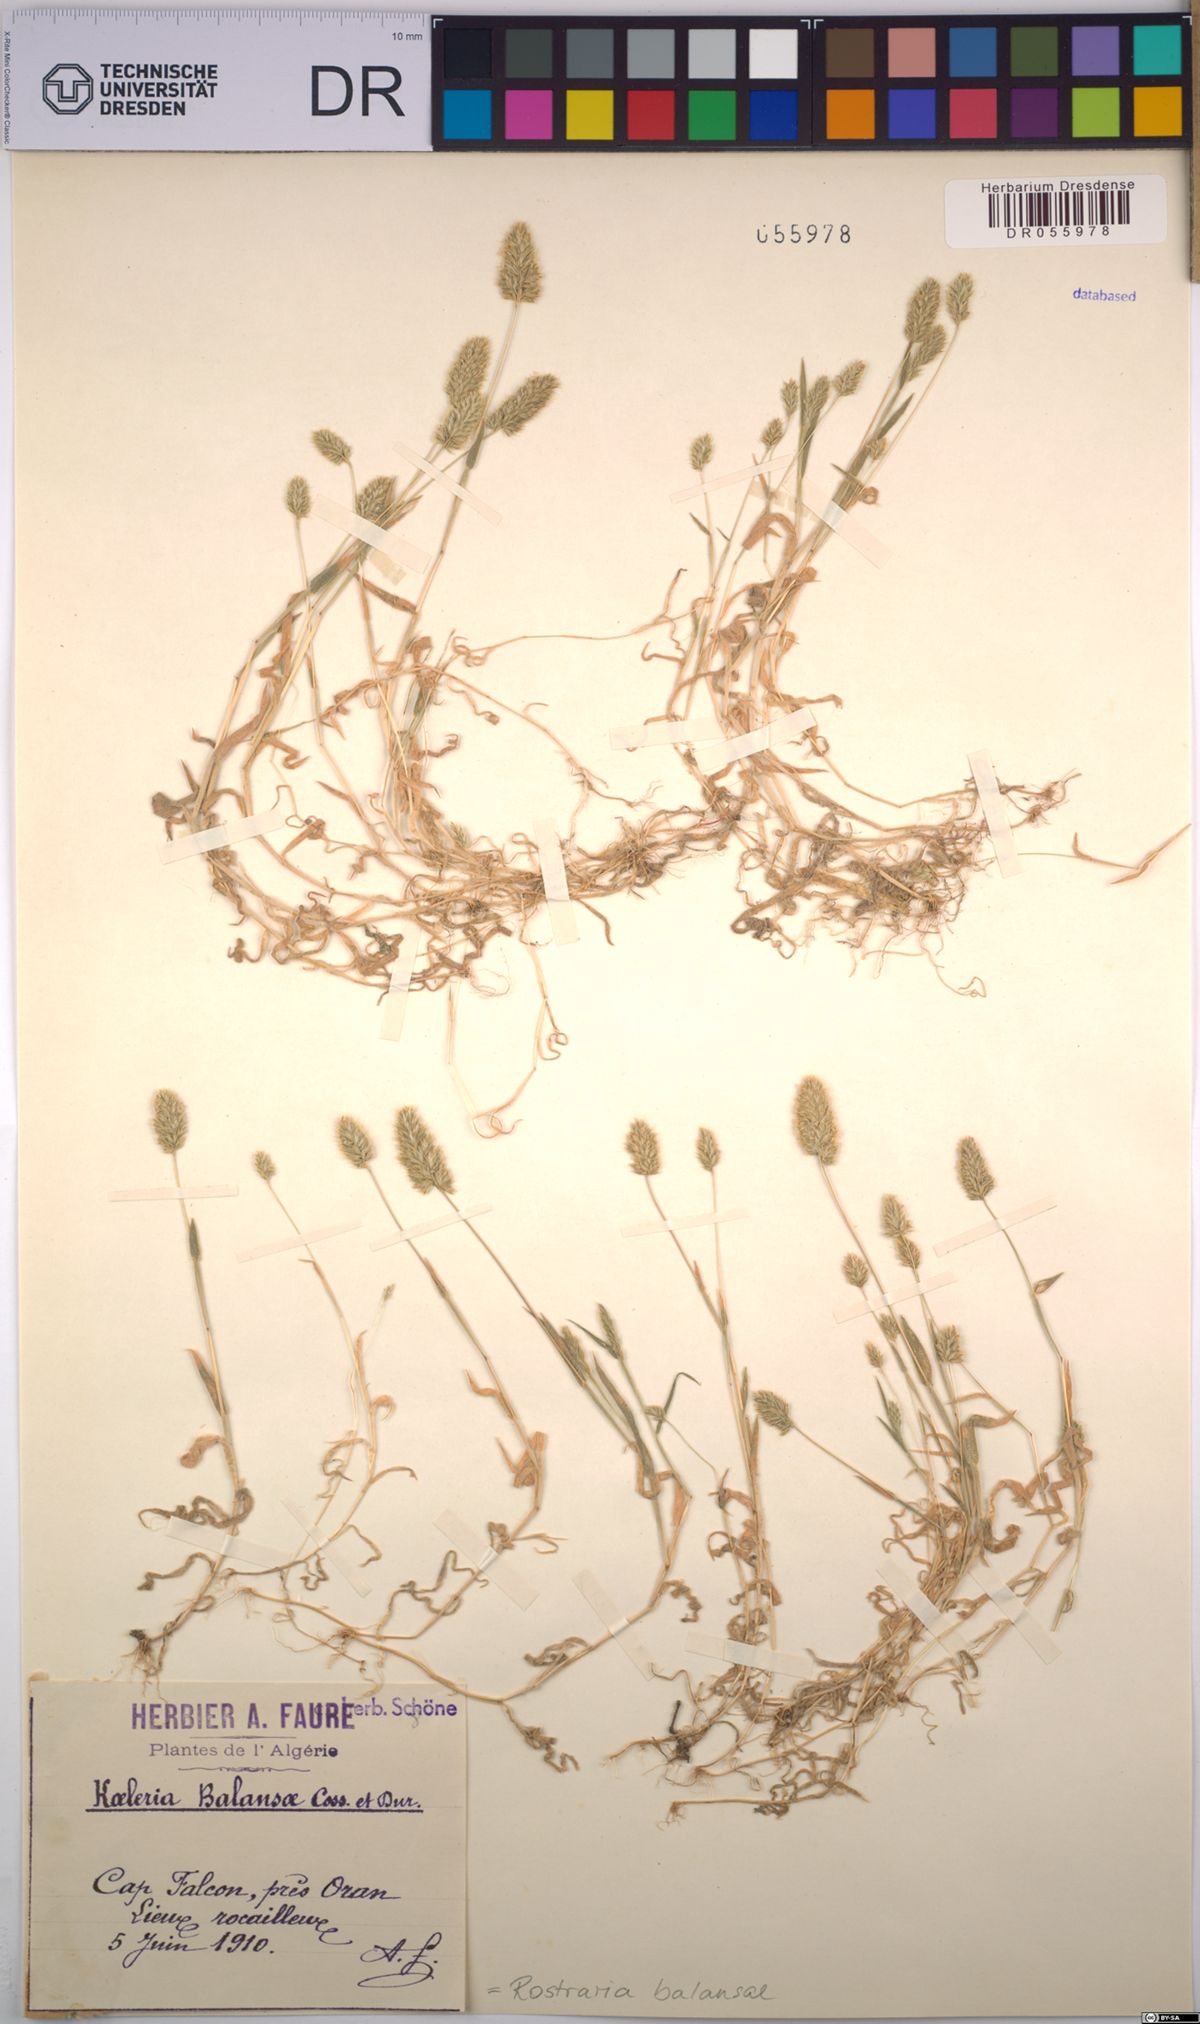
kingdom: Plantae
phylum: Tracheophyta
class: Liliopsida
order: Poales
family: Poaceae
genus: Rostraria
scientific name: Rostraria balansae
